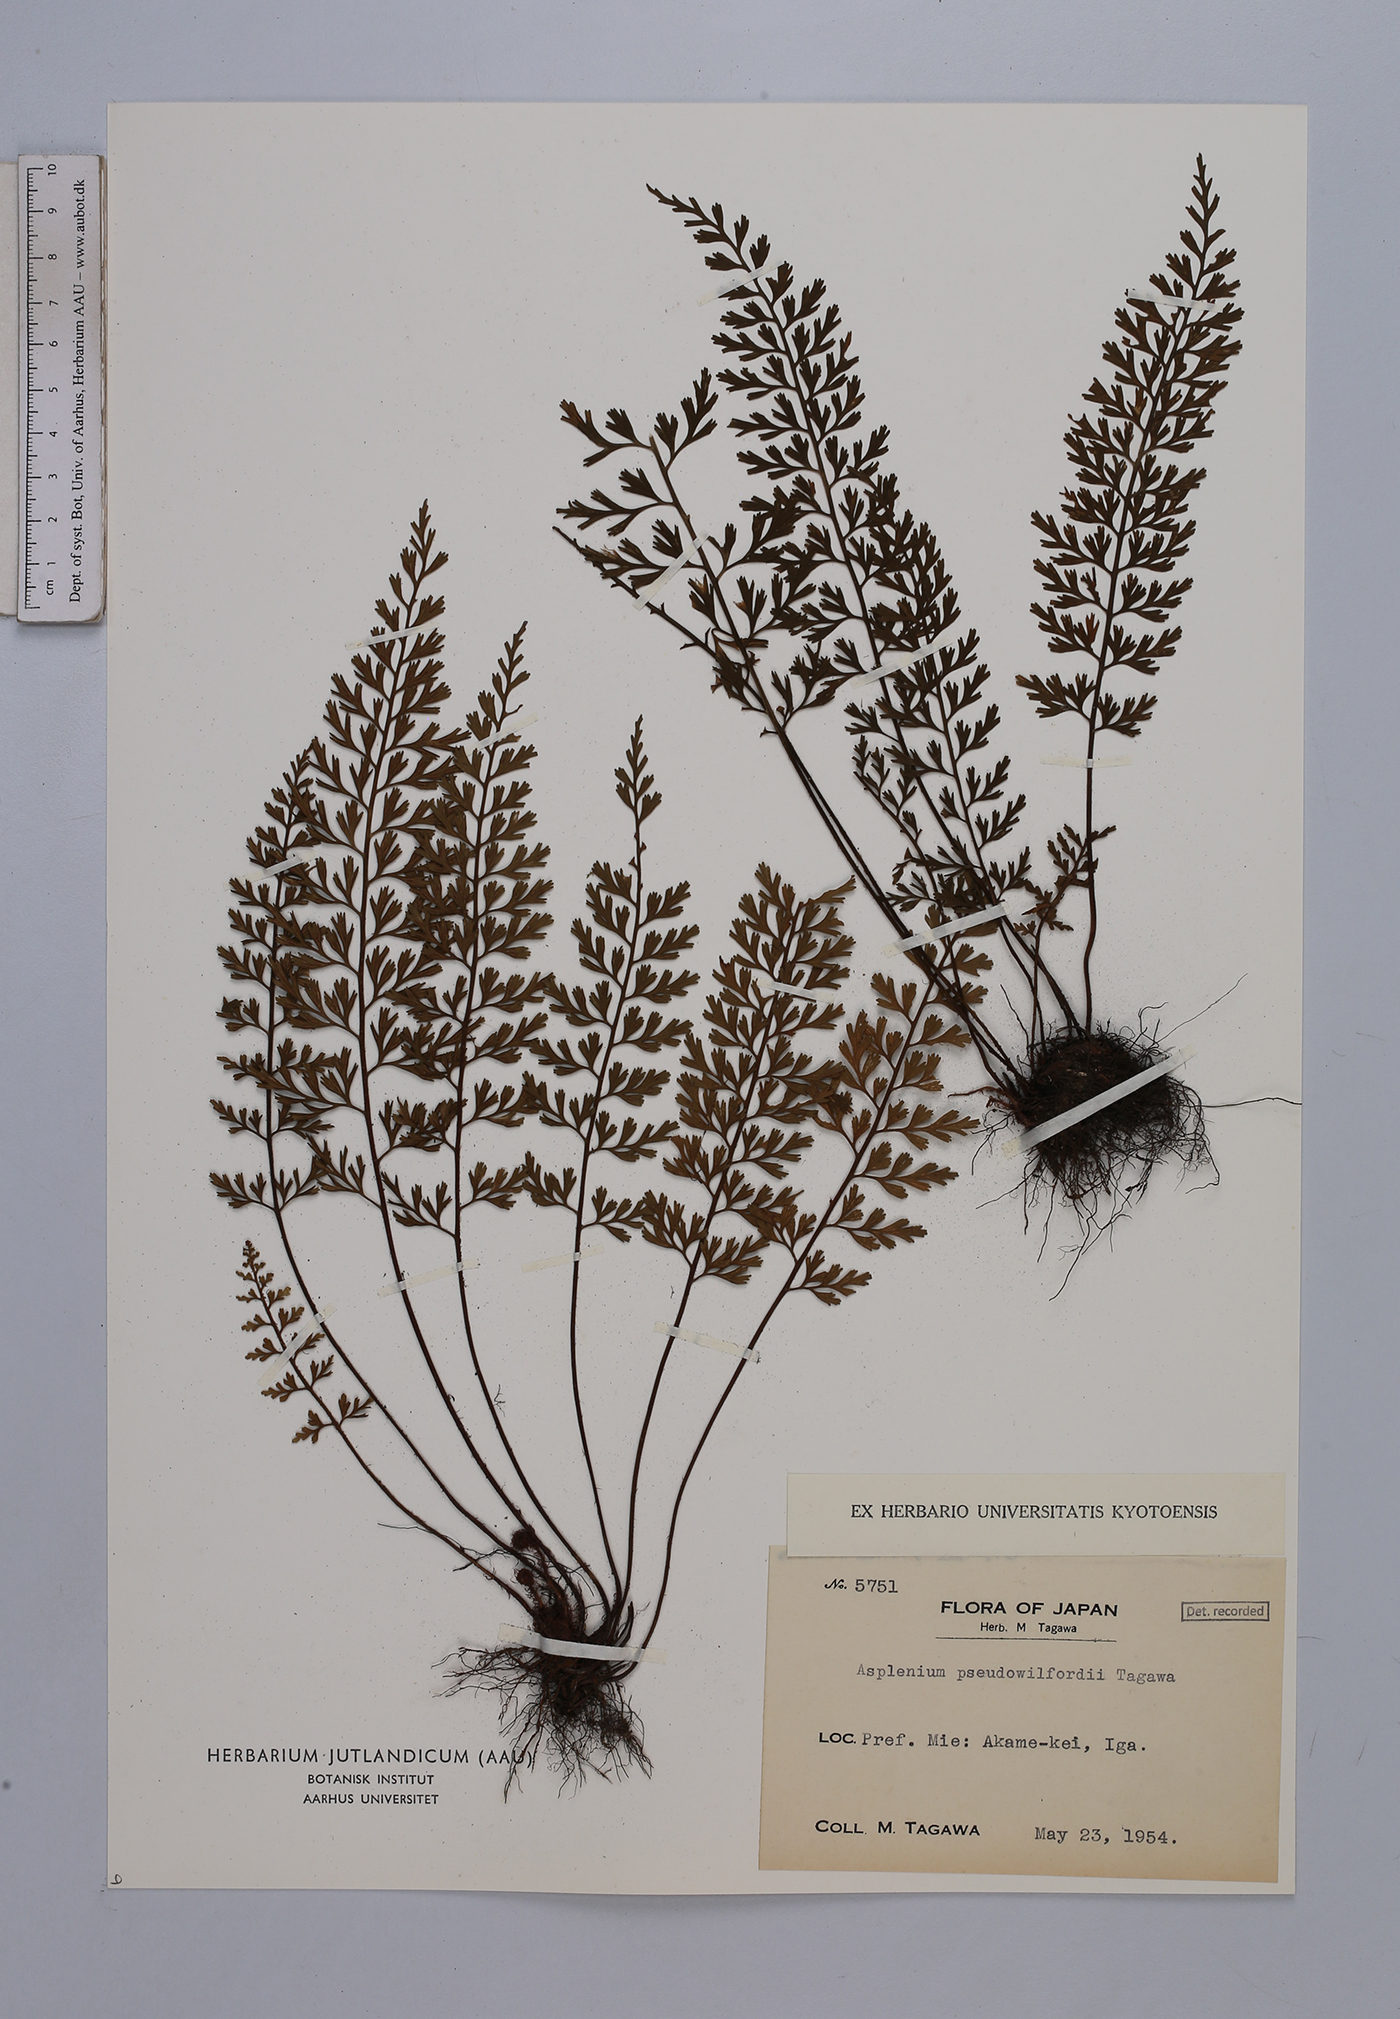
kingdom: Plantae
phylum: Tracheophyta
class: Polypodiopsida
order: Polypodiales
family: Aspleniaceae
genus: Asplenium
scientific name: Asplenium austrochinense
